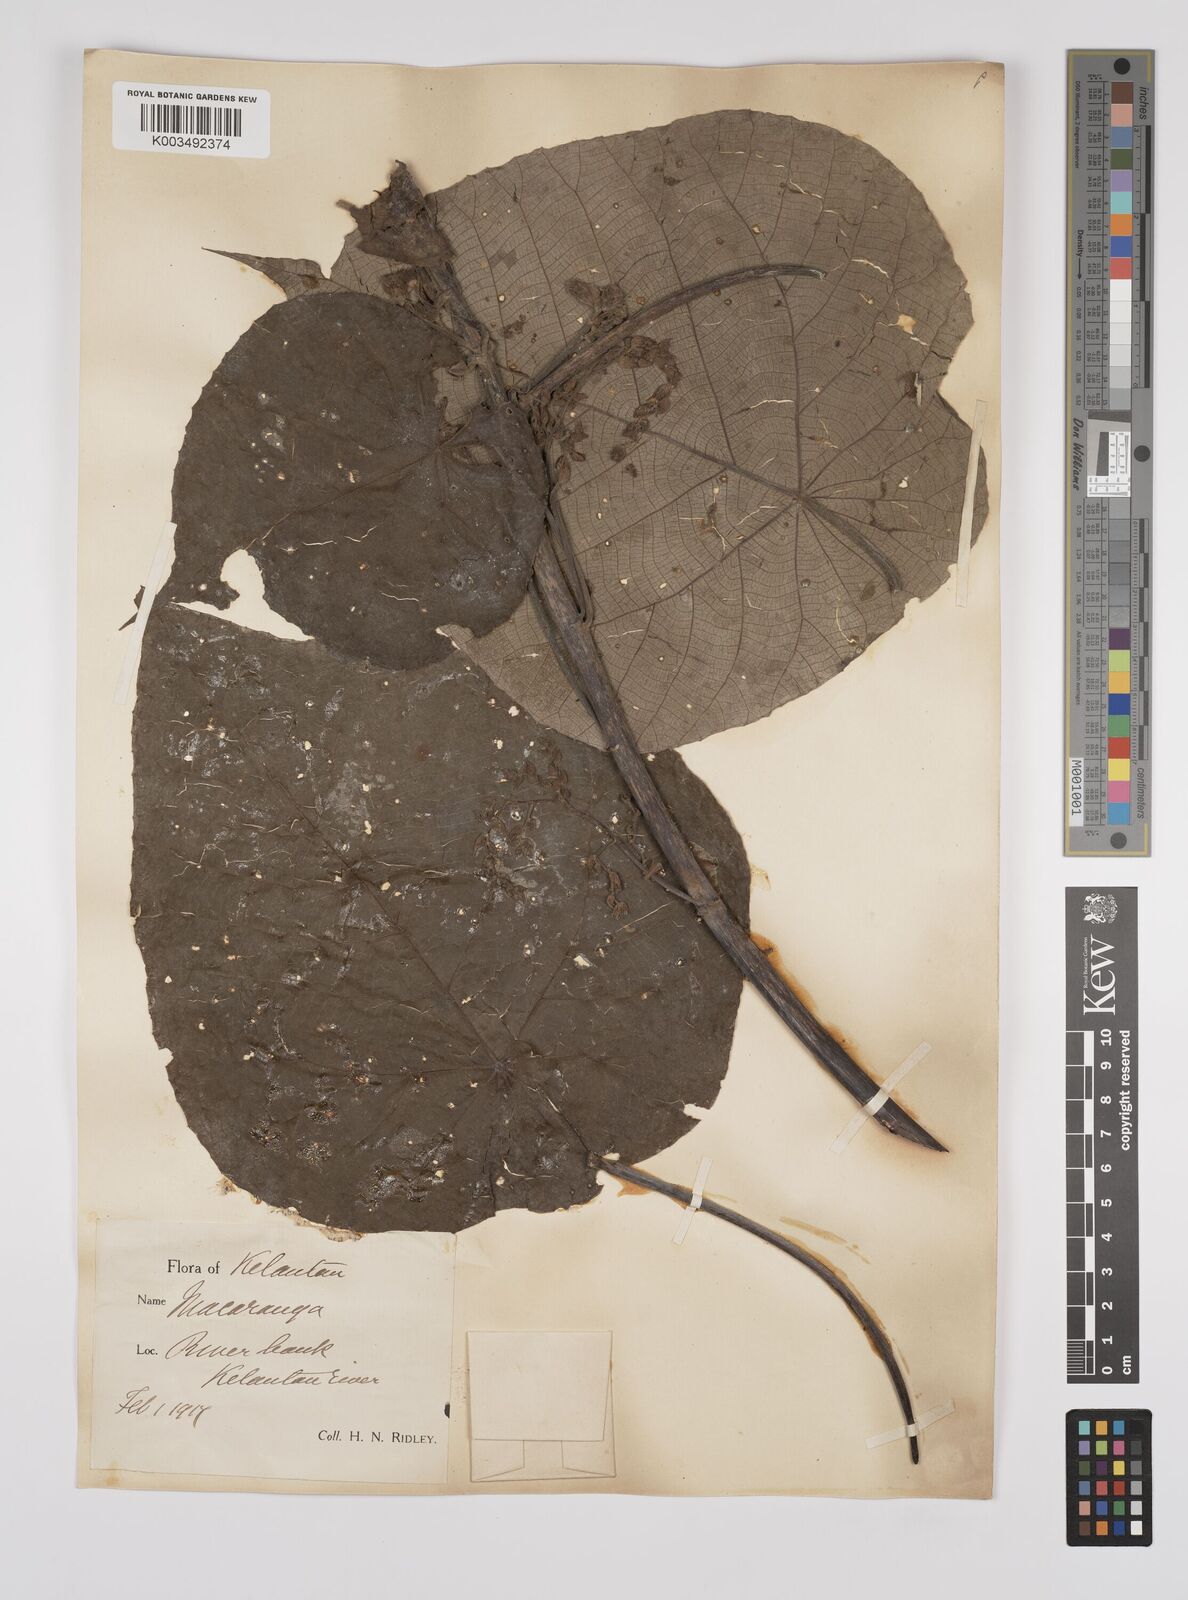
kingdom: Plantae
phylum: Tracheophyta
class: Magnoliopsida
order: Malpighiales
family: Euphorbiaceae
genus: Macaranga
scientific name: Macaranga tanarius
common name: Parasol leaf tree
